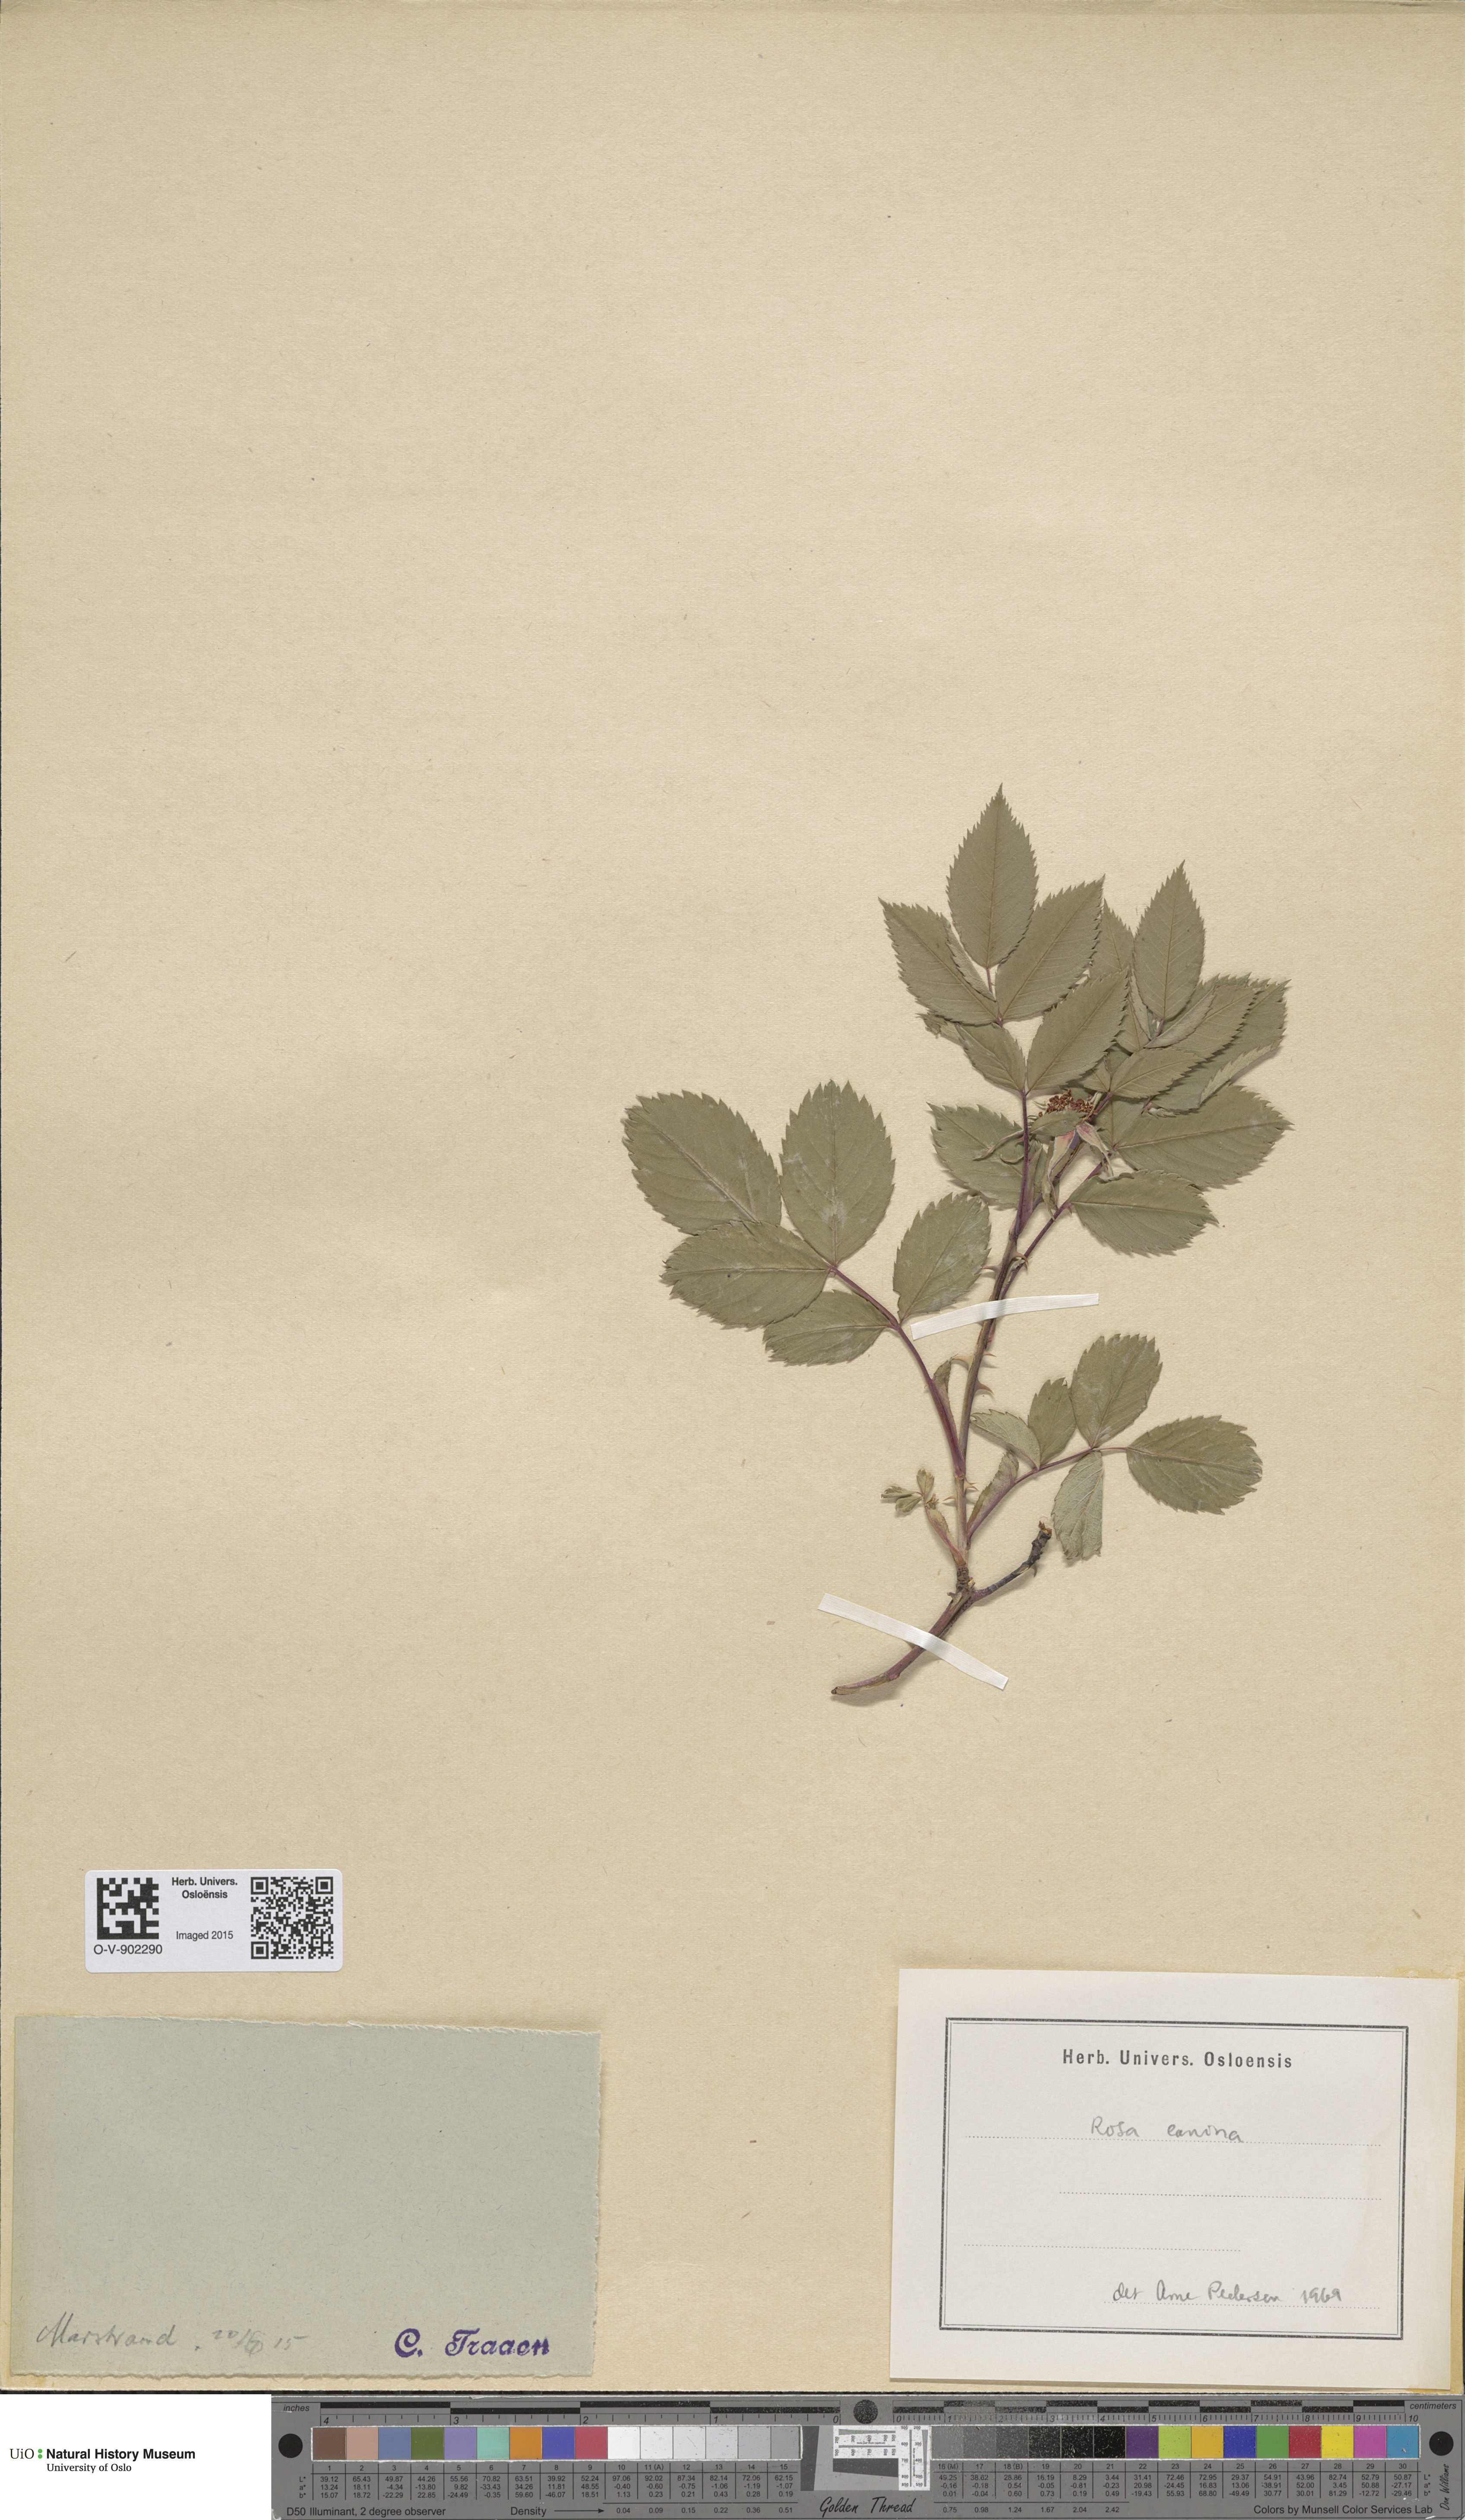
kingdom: Plantae
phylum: Tracheophyta
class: Magnoliopsida
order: Rosales
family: Rosaceae
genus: Rosa
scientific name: Rosa canina
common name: Dog rose
